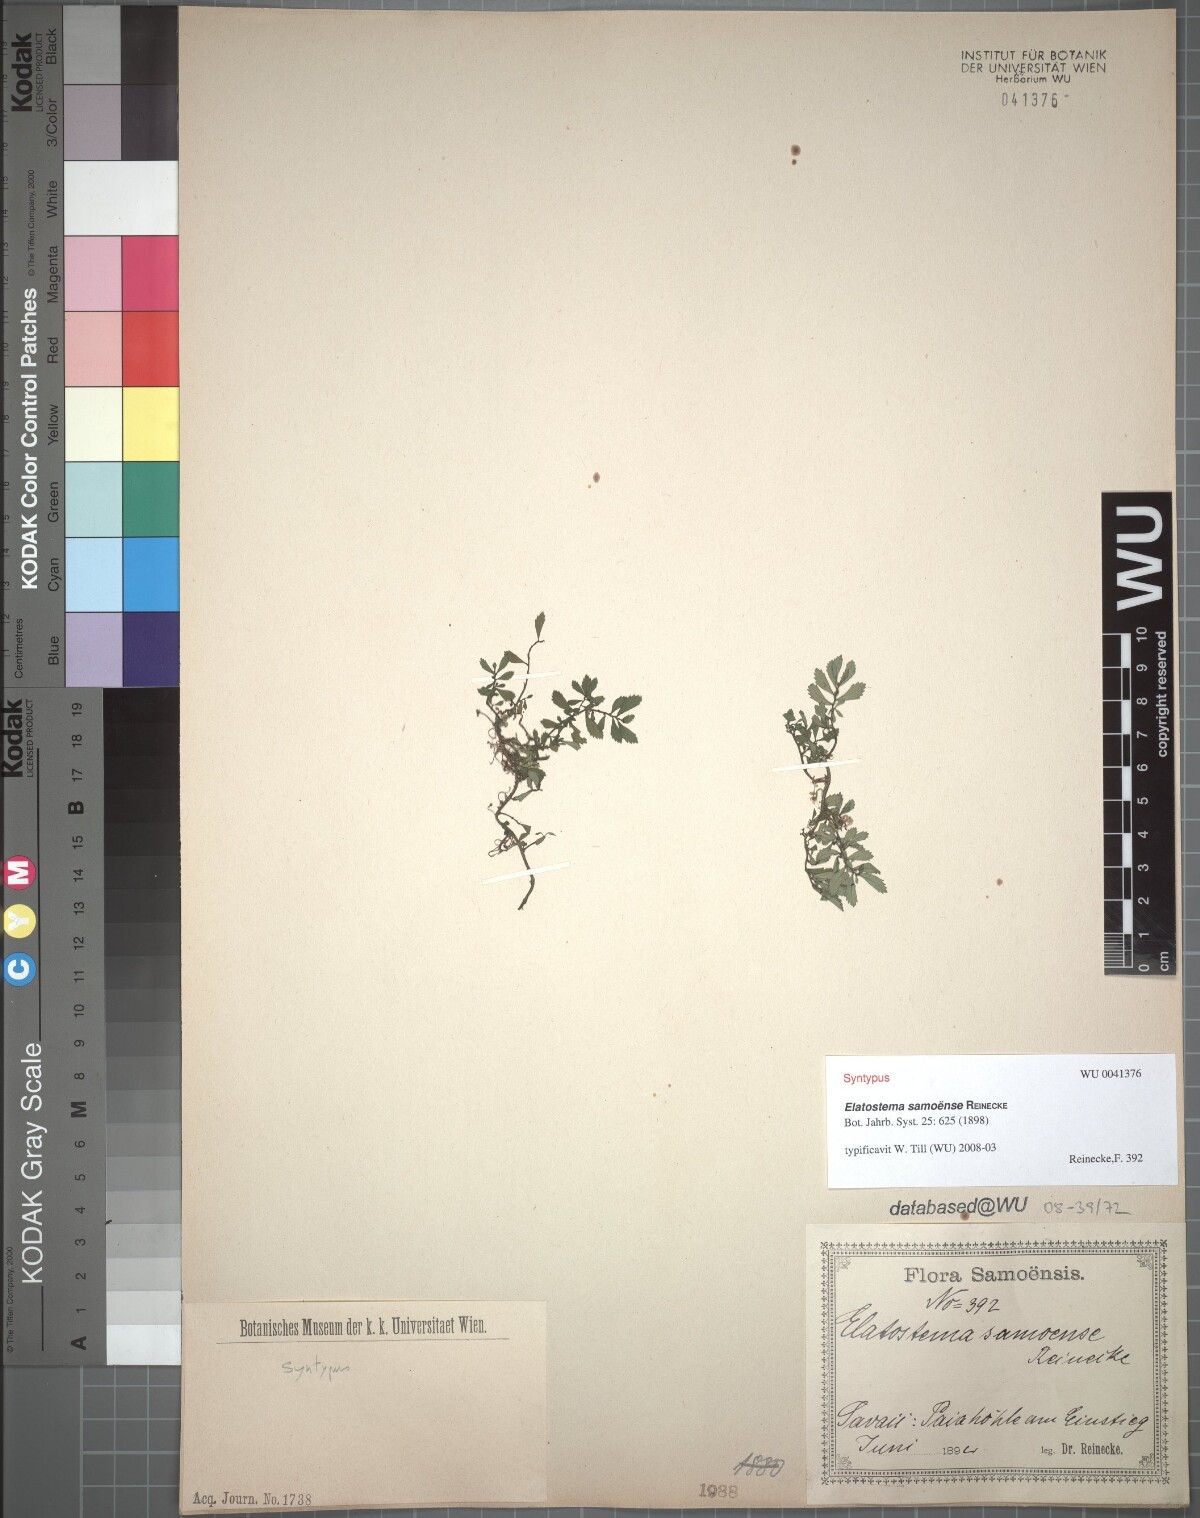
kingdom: Plantae
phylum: Tracheophyta
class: Magnoliopsida
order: Rosales
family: Urticaceae
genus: Elatostema
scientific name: Elatostema samoense
